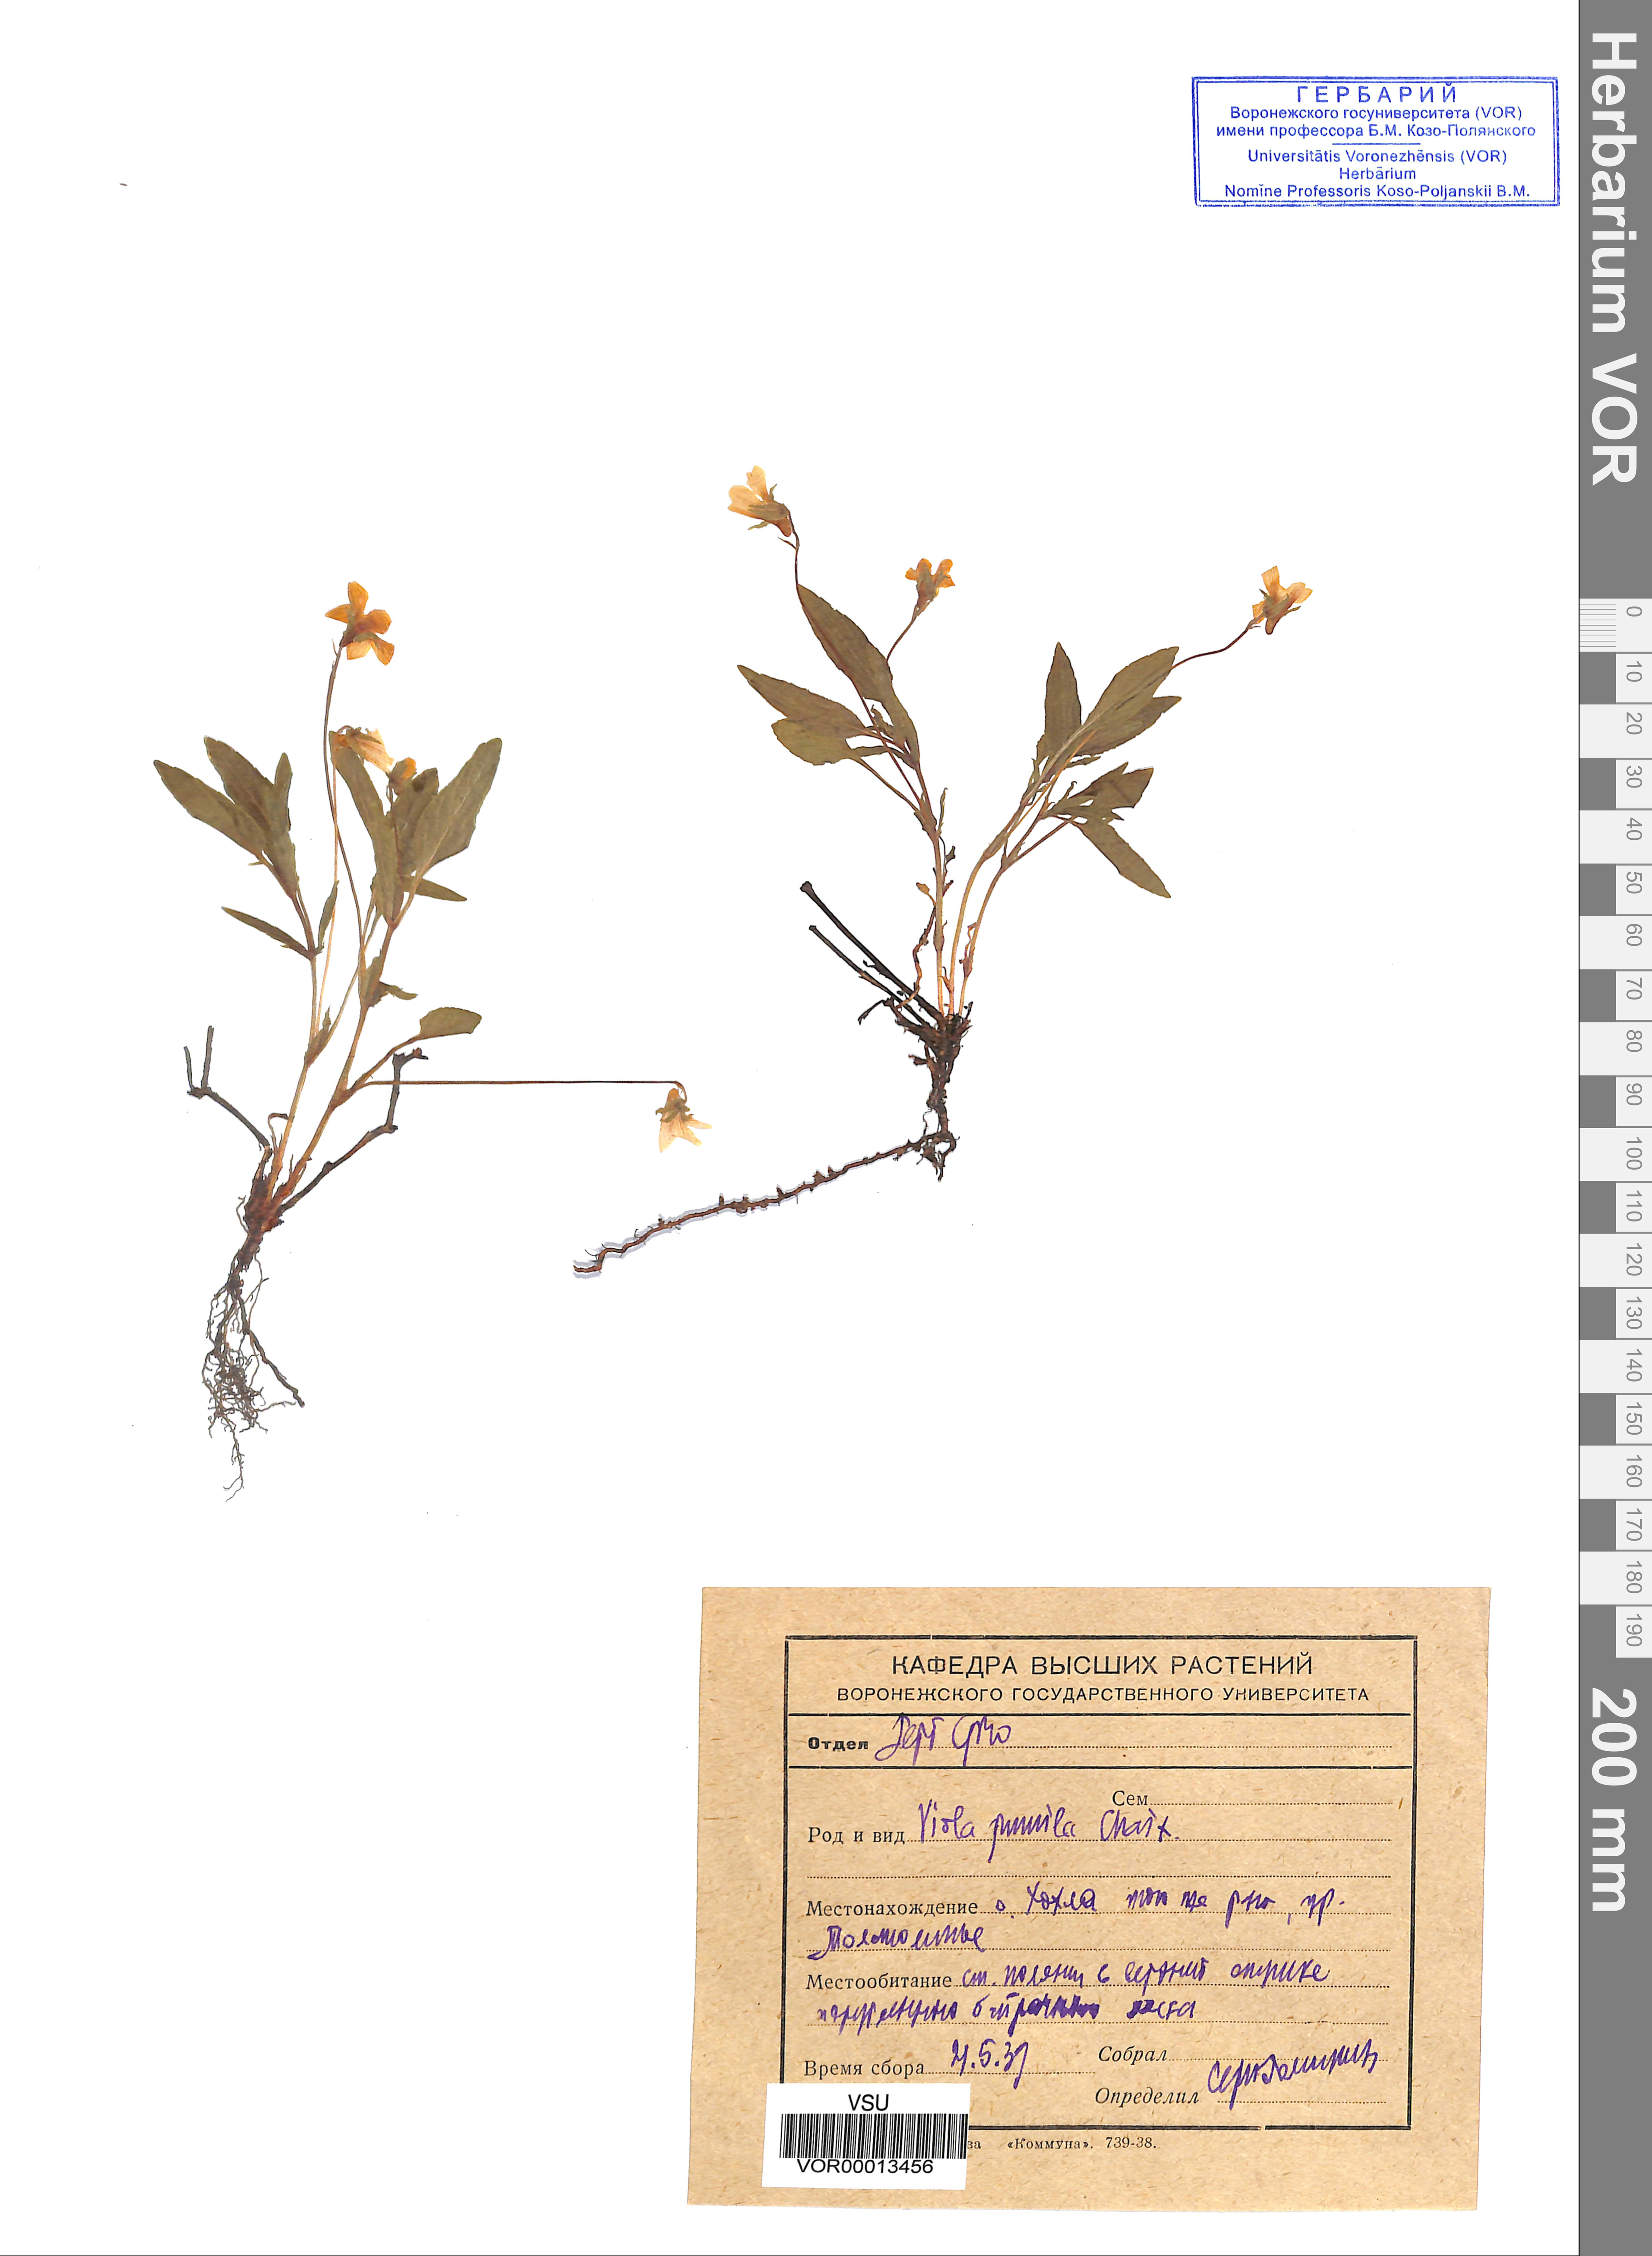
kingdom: Plantae
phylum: Tracheophyta
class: Magnoliopsida
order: Malpighiales
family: Violaceae
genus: Viola
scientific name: Viola pumila
